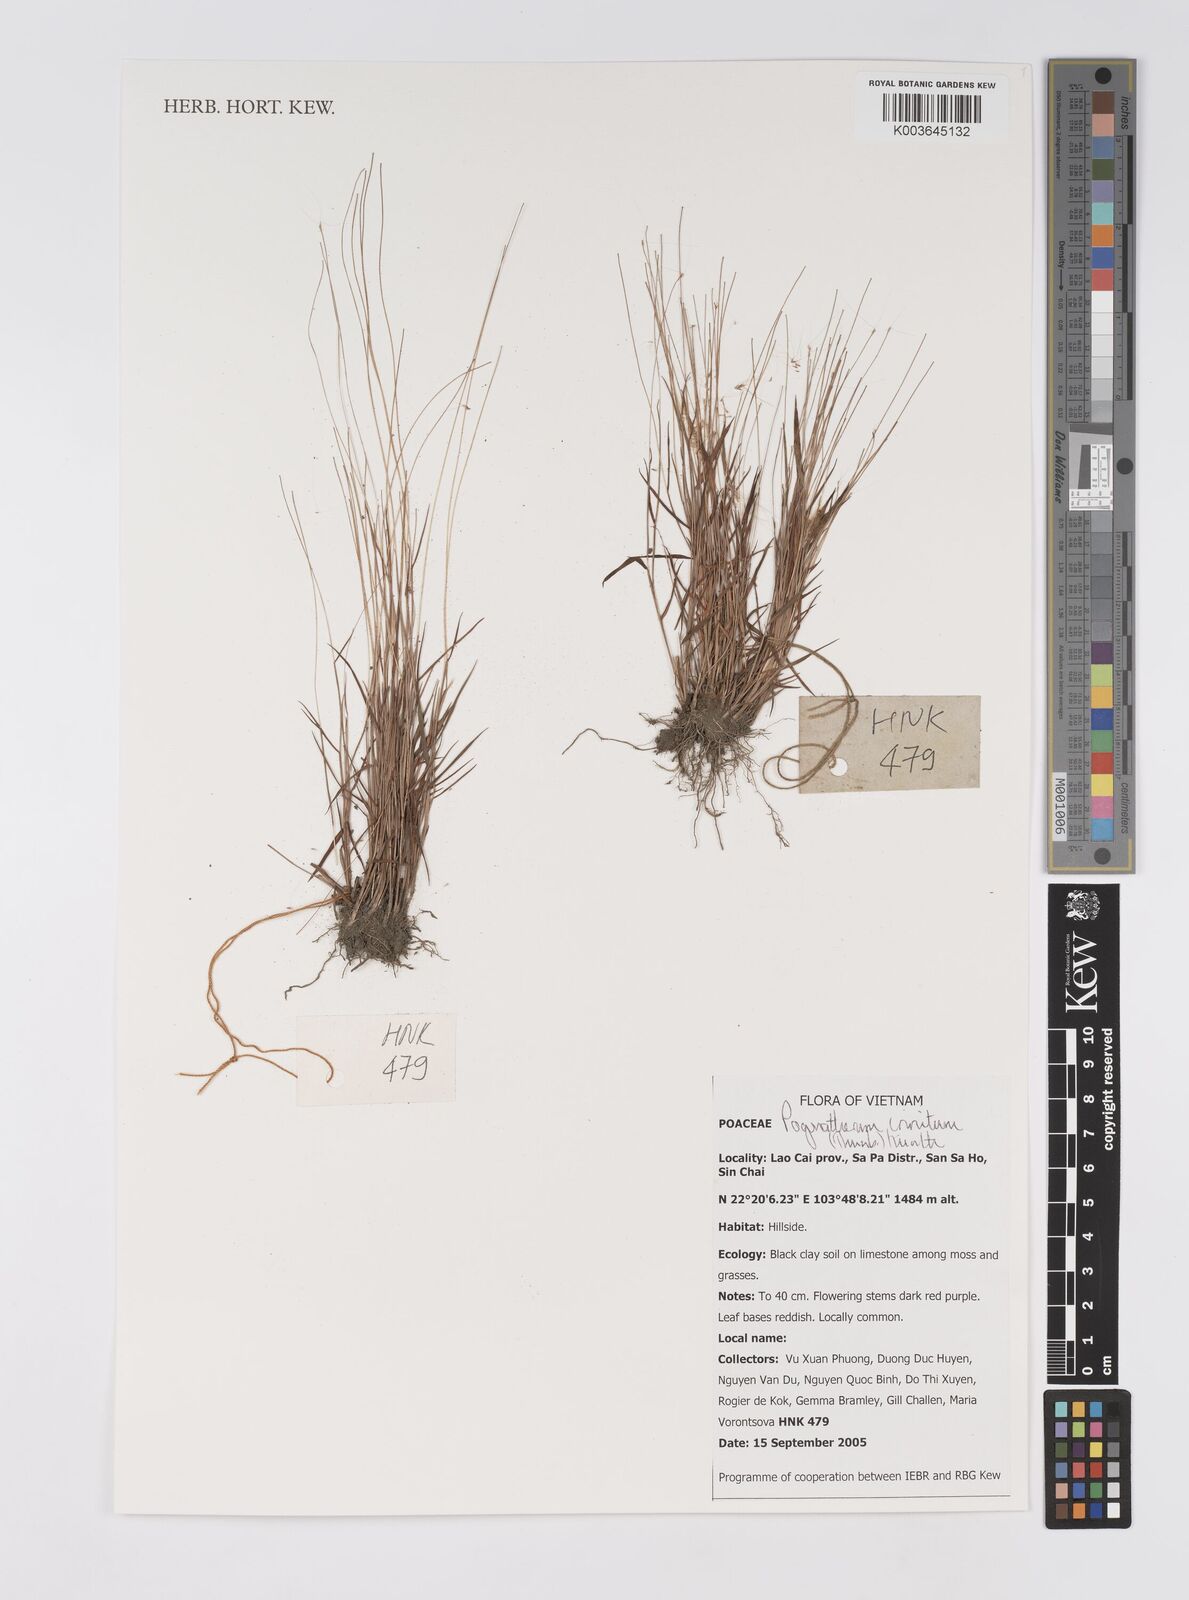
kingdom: Plantae
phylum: Tracheophyta
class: Liliopsida
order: Poales
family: Poaceae
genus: Pogonatherum
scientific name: Pogonatherum crinitum
